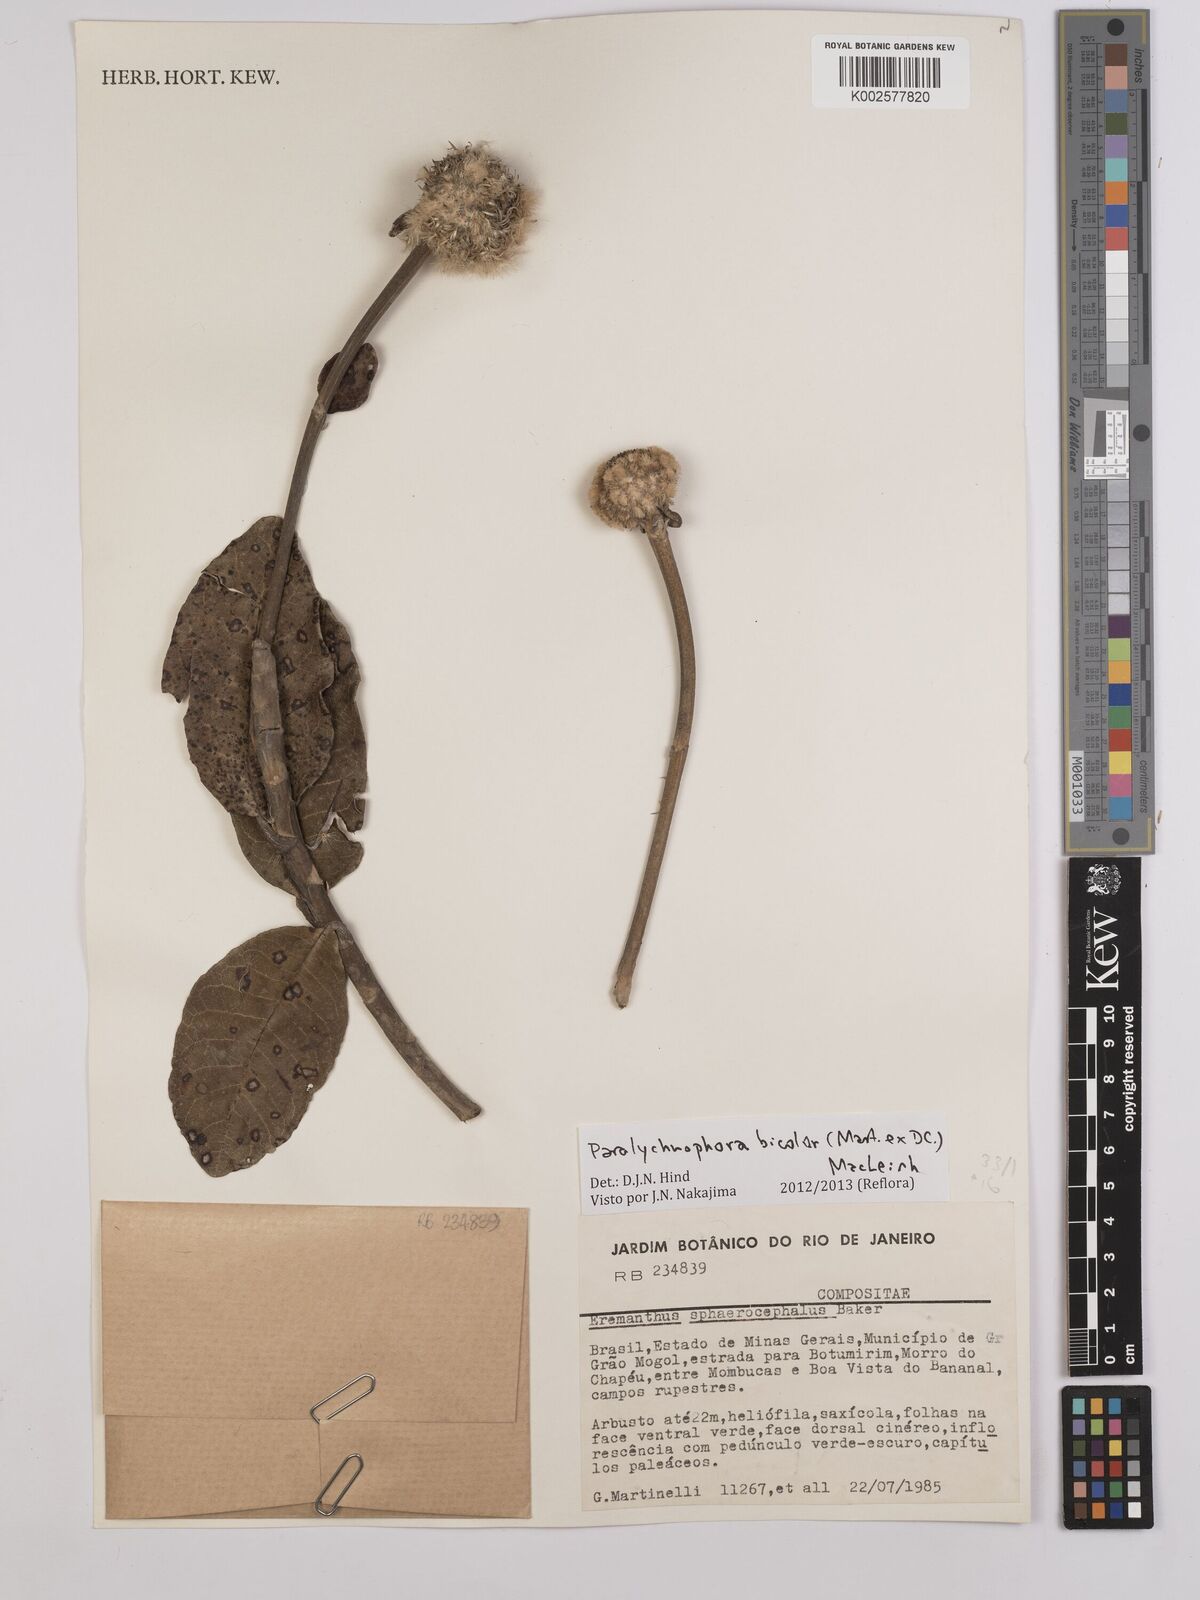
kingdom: Plantae
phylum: Tracheophyta
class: Magnoliopsida
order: Asterales
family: Asteraceae
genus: Paralychnophora
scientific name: Paralychnophora bicolor
